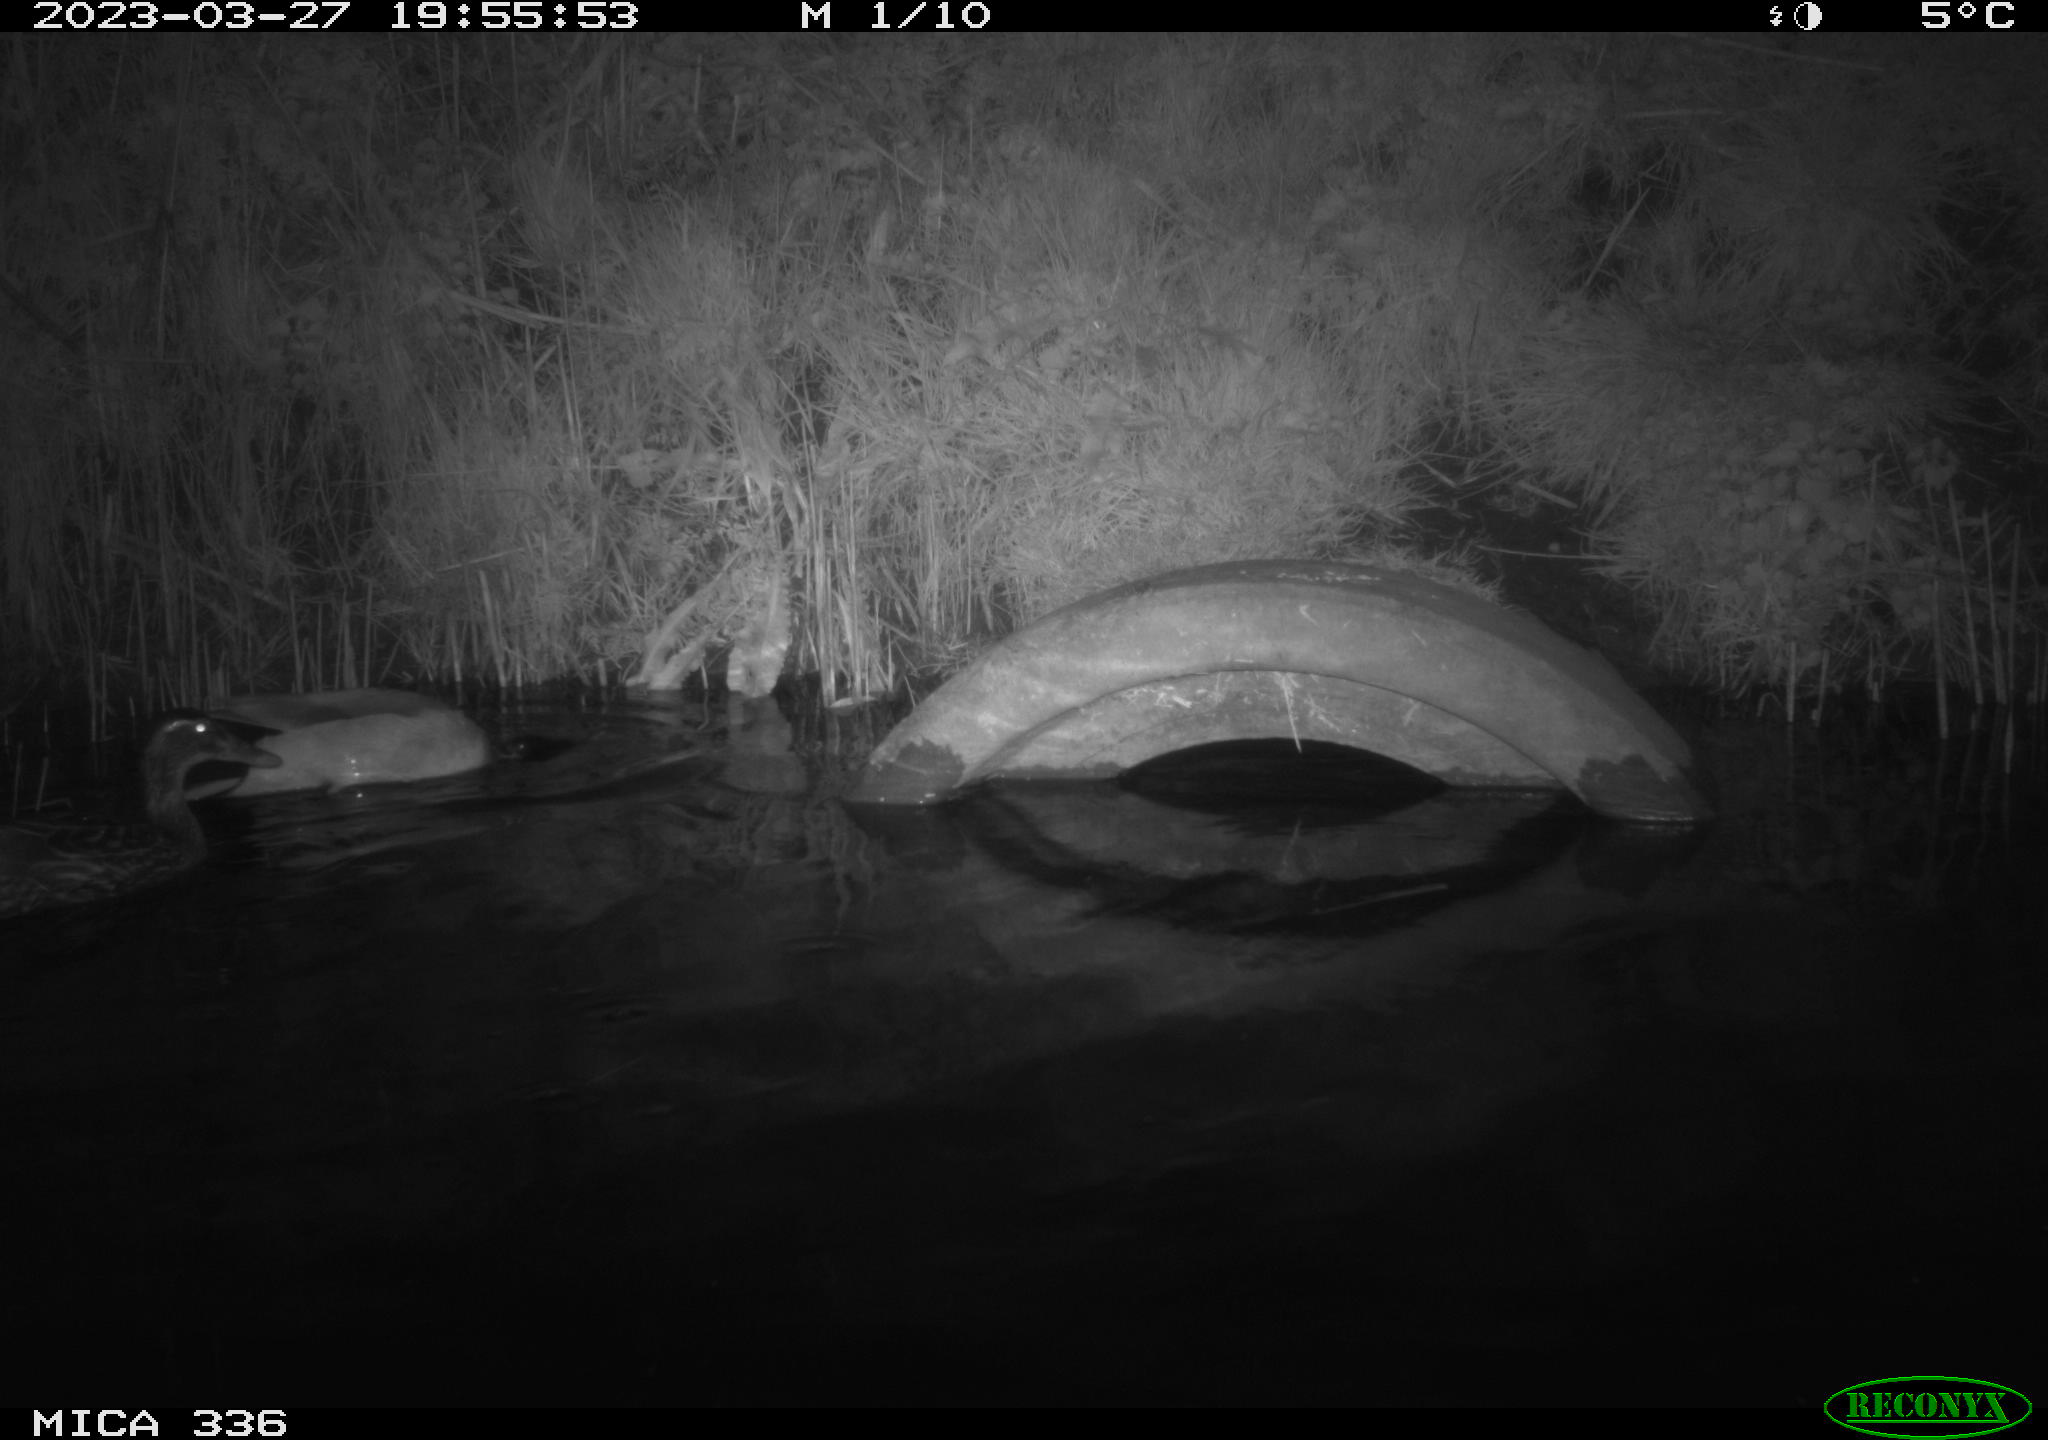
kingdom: Animalia
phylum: Chordata
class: Aves
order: Anseriformes
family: Anatidae
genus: Anas
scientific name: Anas
